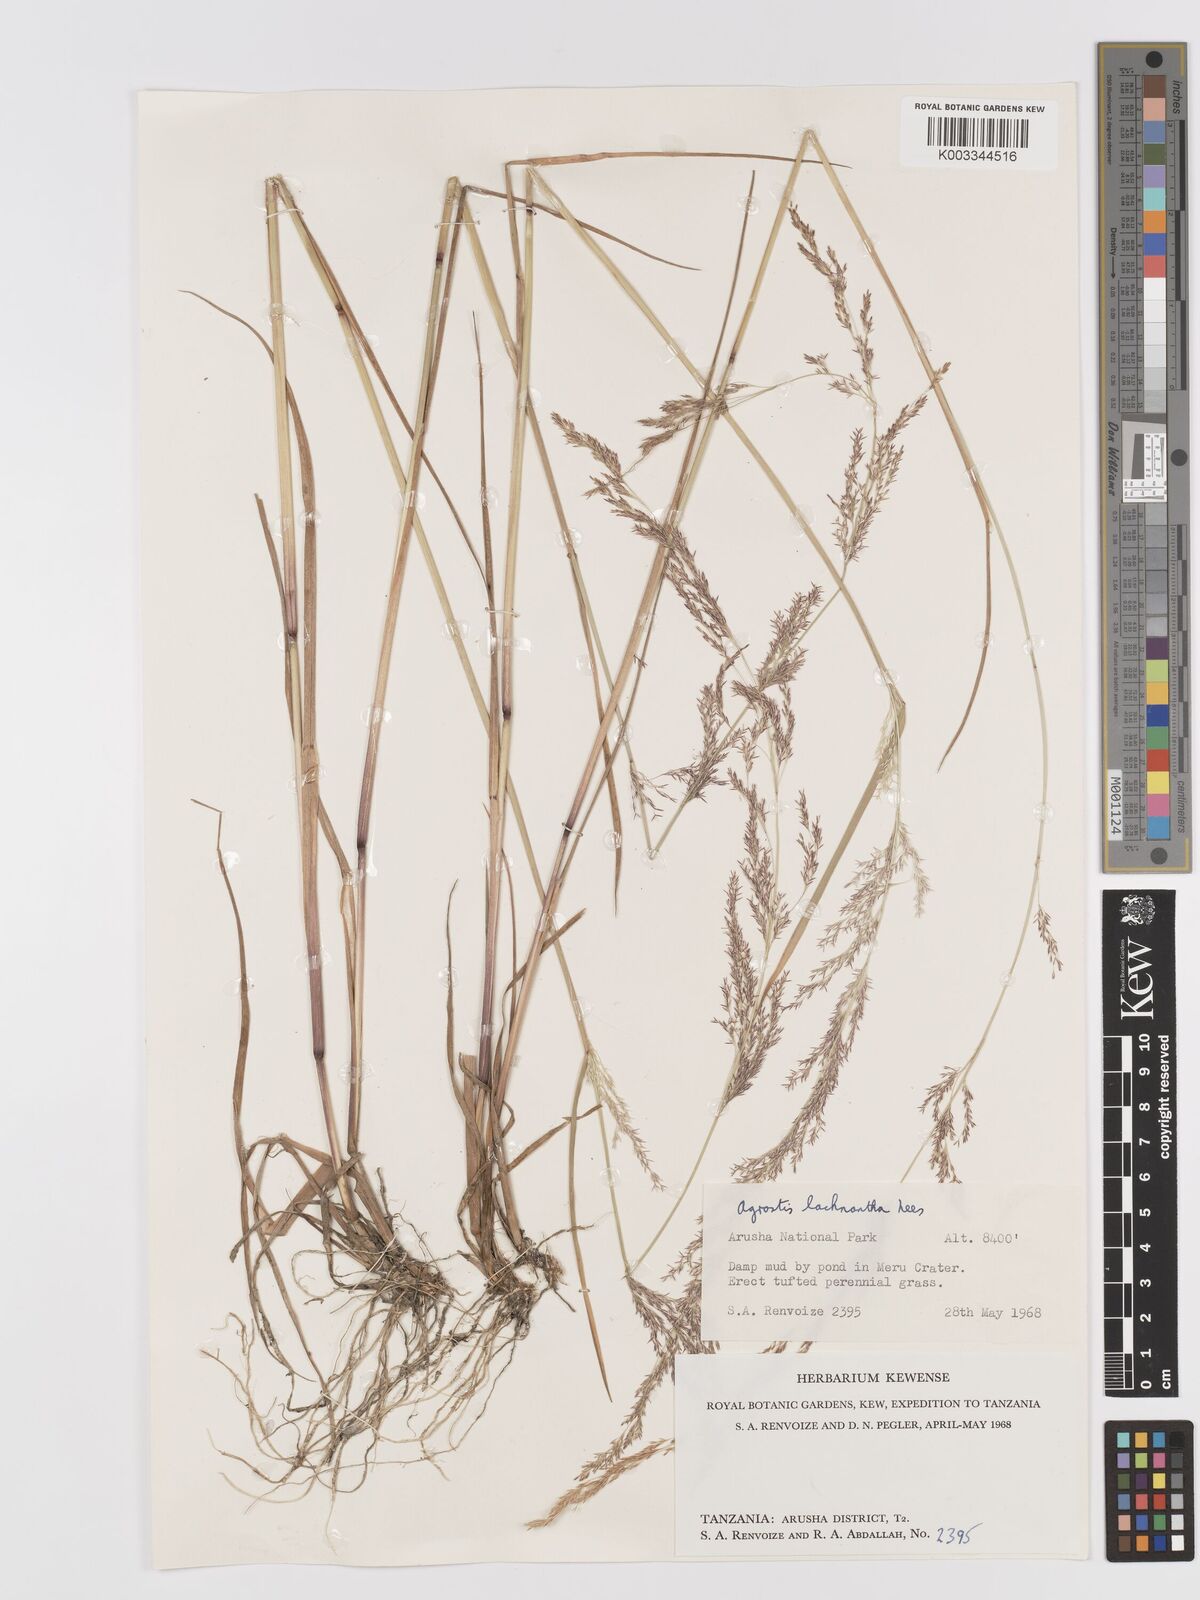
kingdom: Plantae
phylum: Tracheophyta
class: Liliopsida
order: Poales
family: Poaceae
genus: Lachnagrostis
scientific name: Lachnagrostis lachnantha
